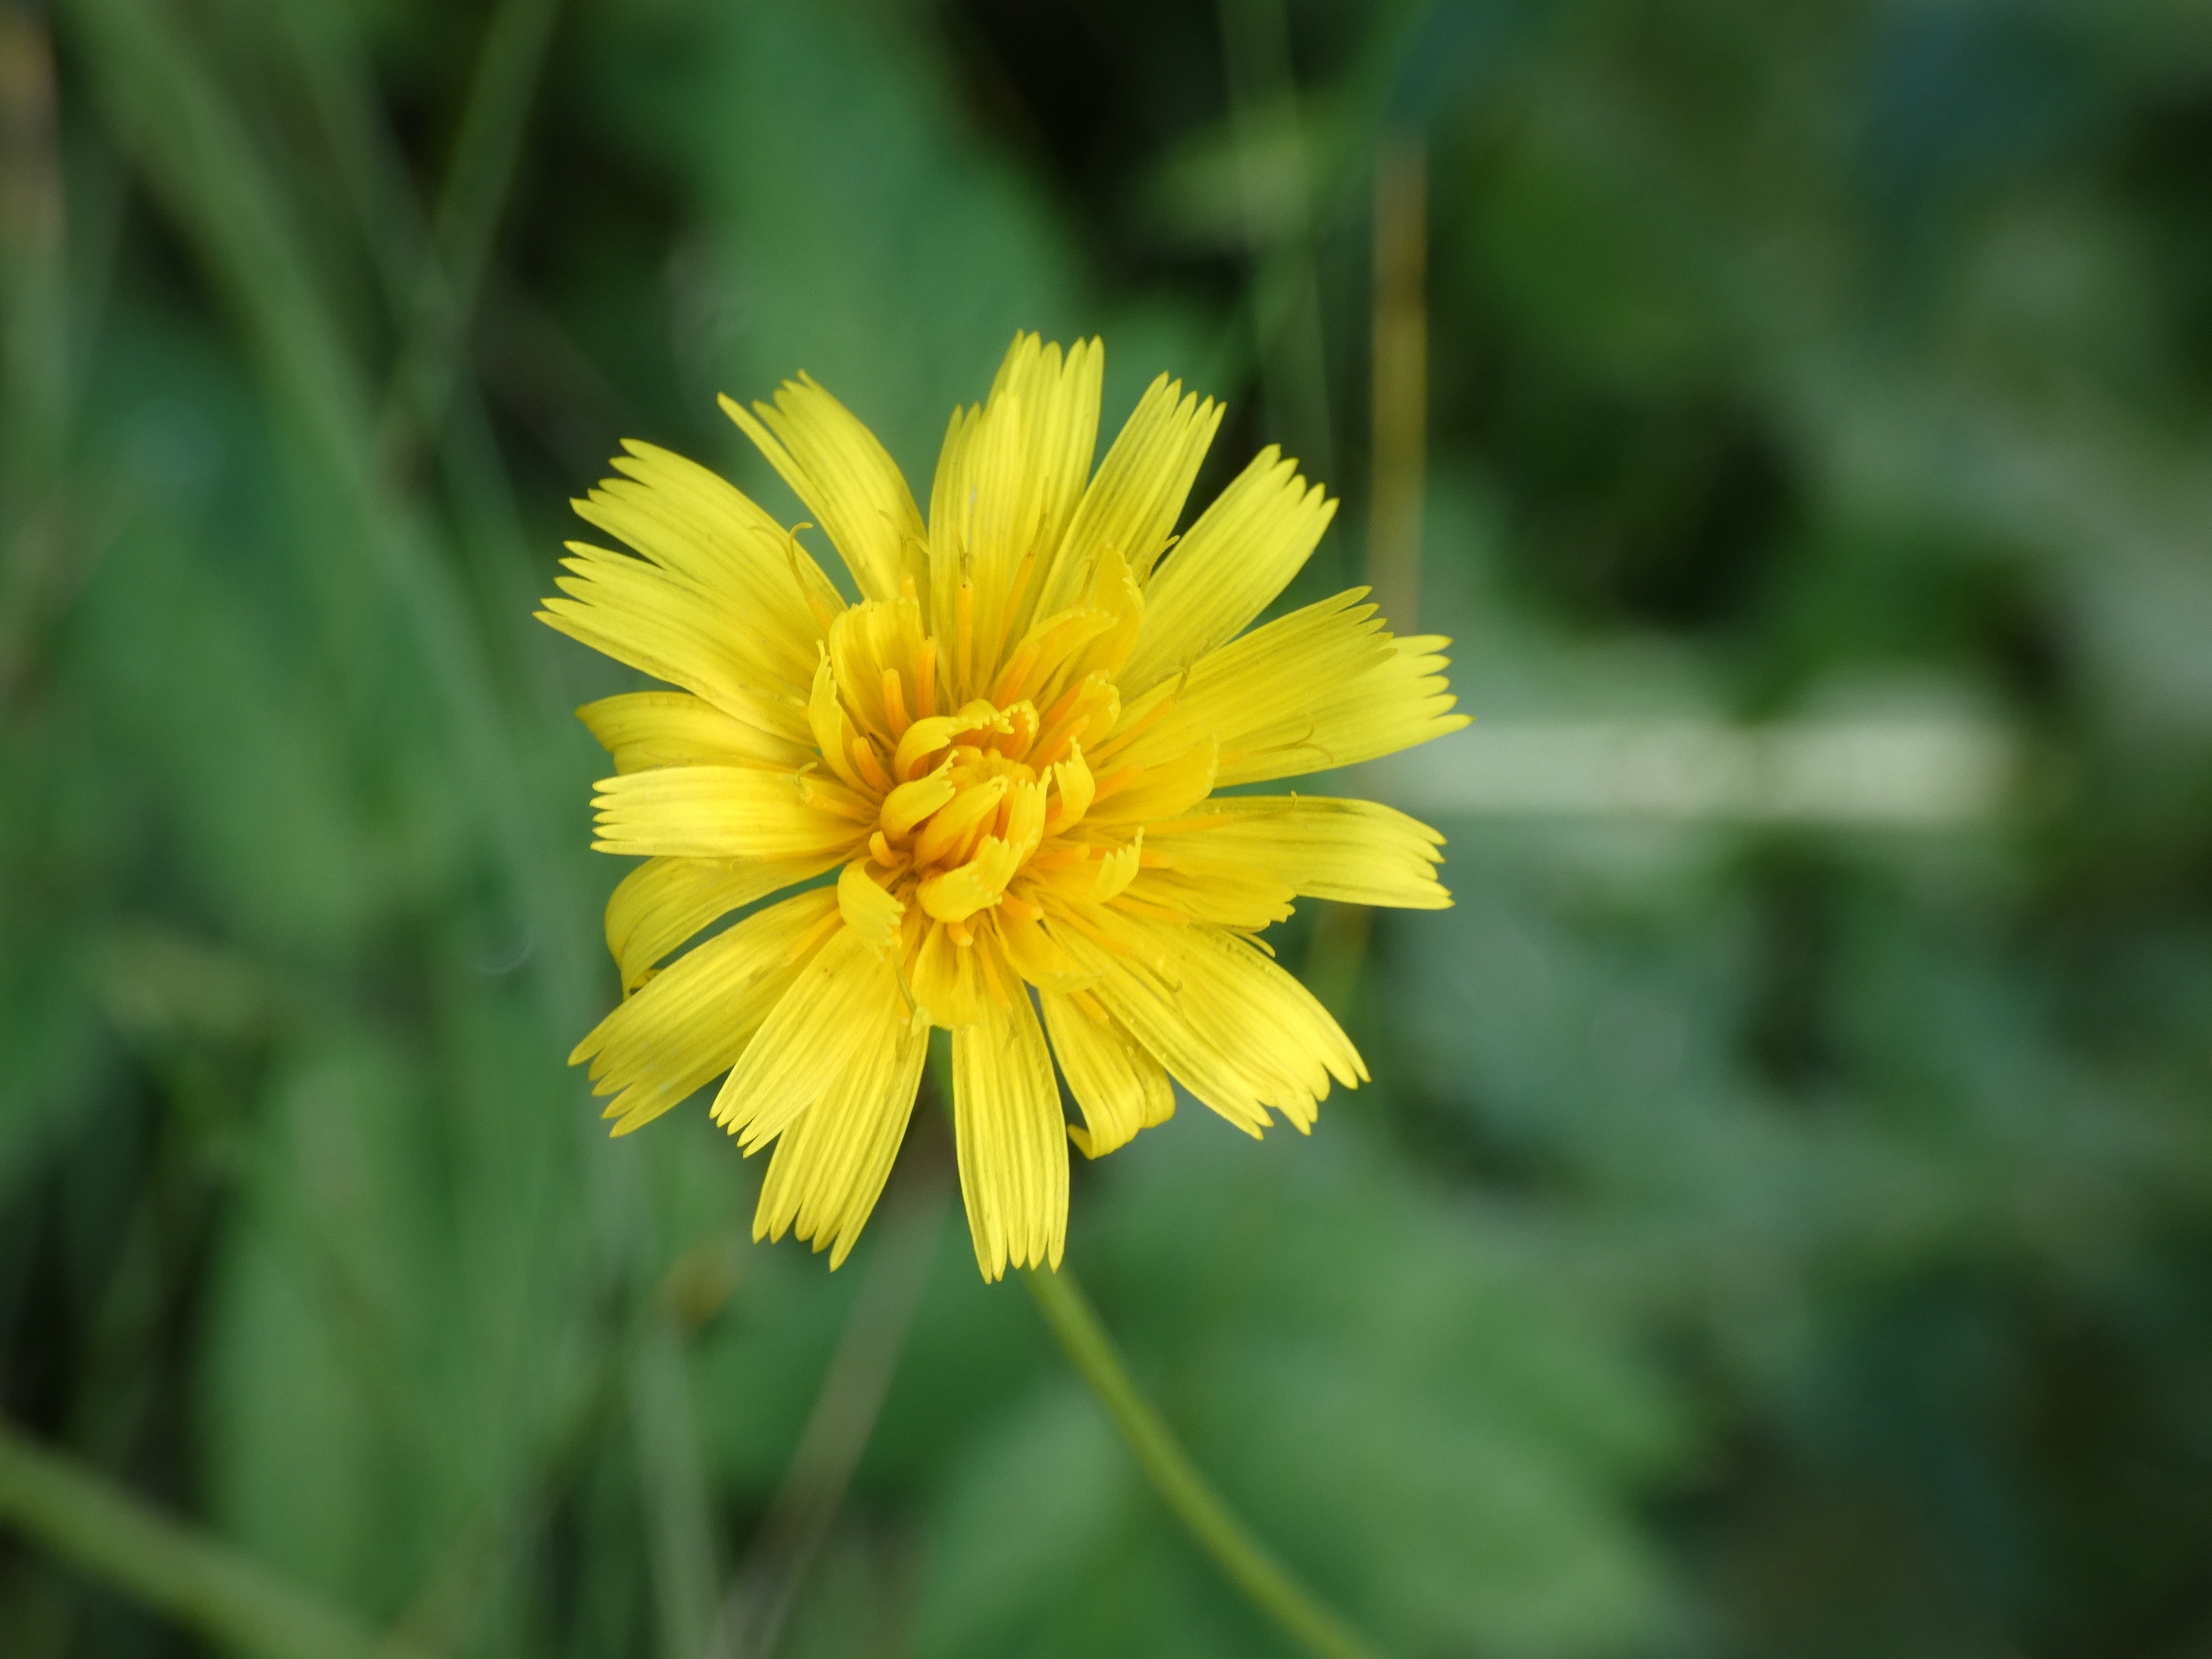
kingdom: Plantae
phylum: Tracheophyta
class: Magnoliopsida
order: Asterales
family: Asteraceae
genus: Scorzoneroides
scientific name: Scorzoneroides autumnalis
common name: Høst-borst
